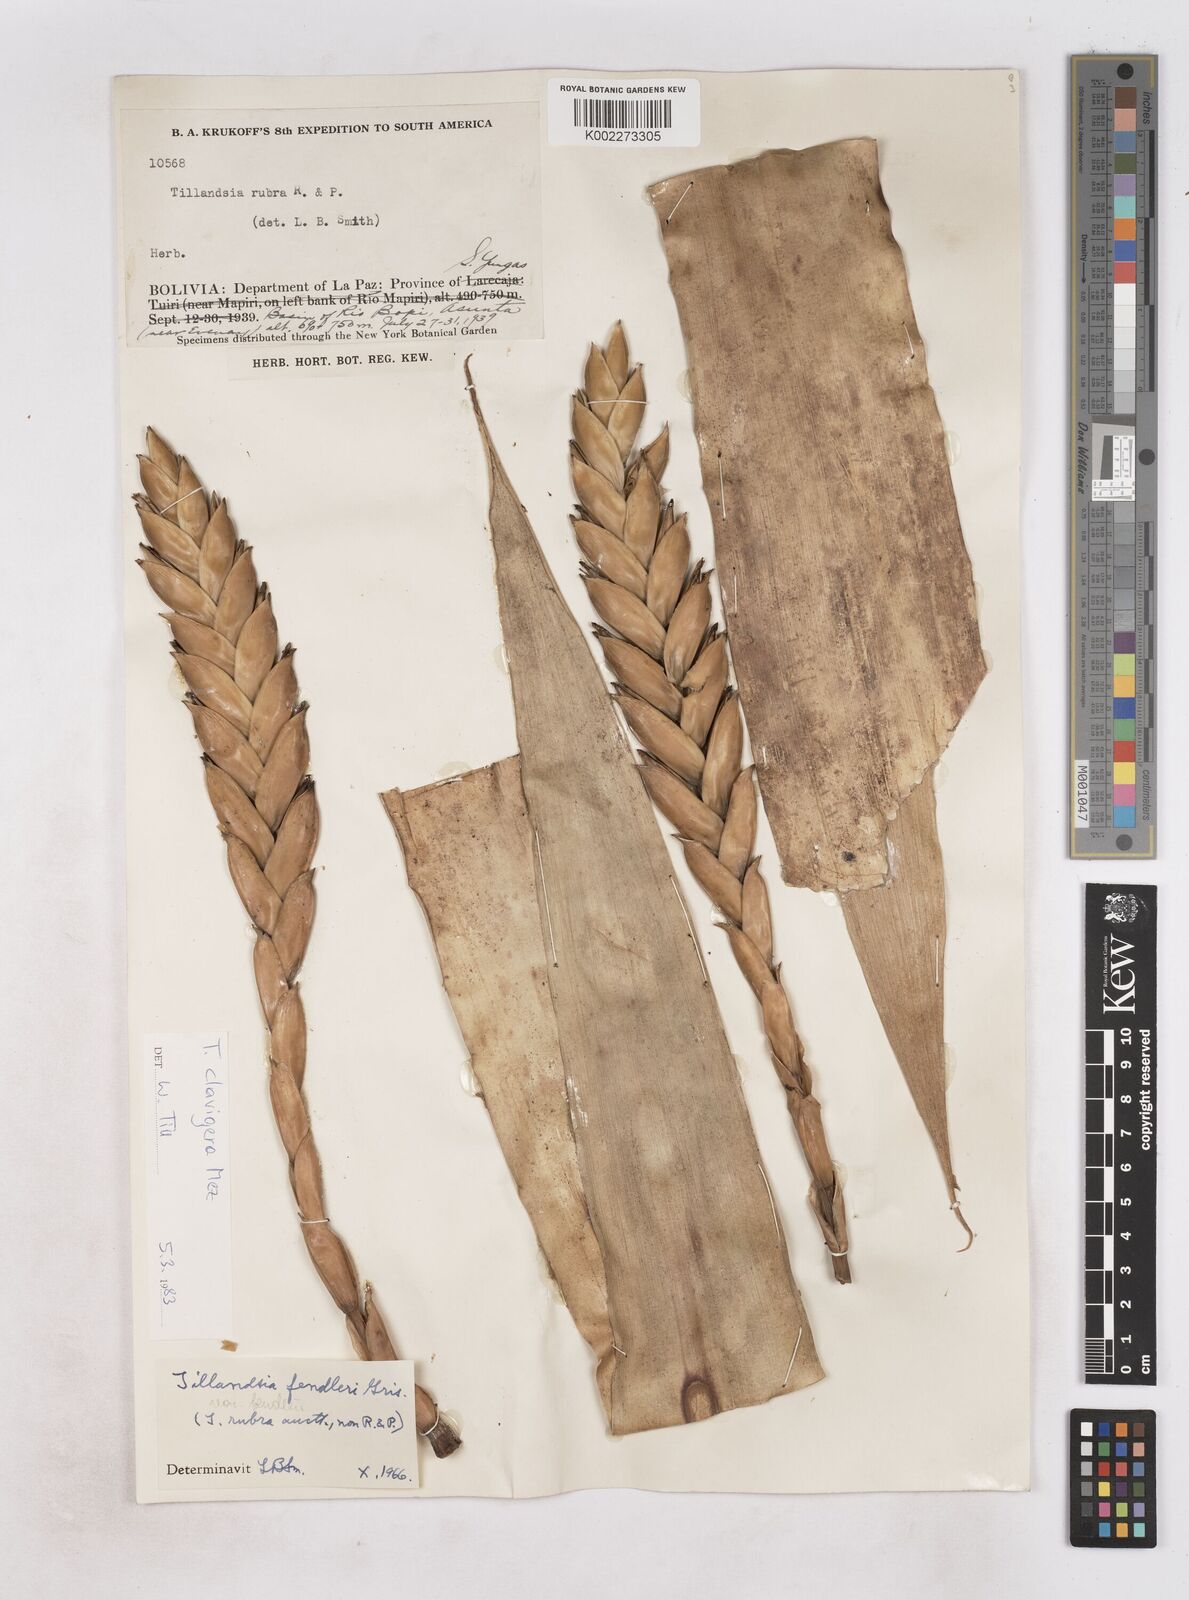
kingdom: Plantae
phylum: Tracheophyta
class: Liliopsida
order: Poales
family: Bromeliaceae
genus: Tillandsia
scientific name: Tillandsia clavigera
